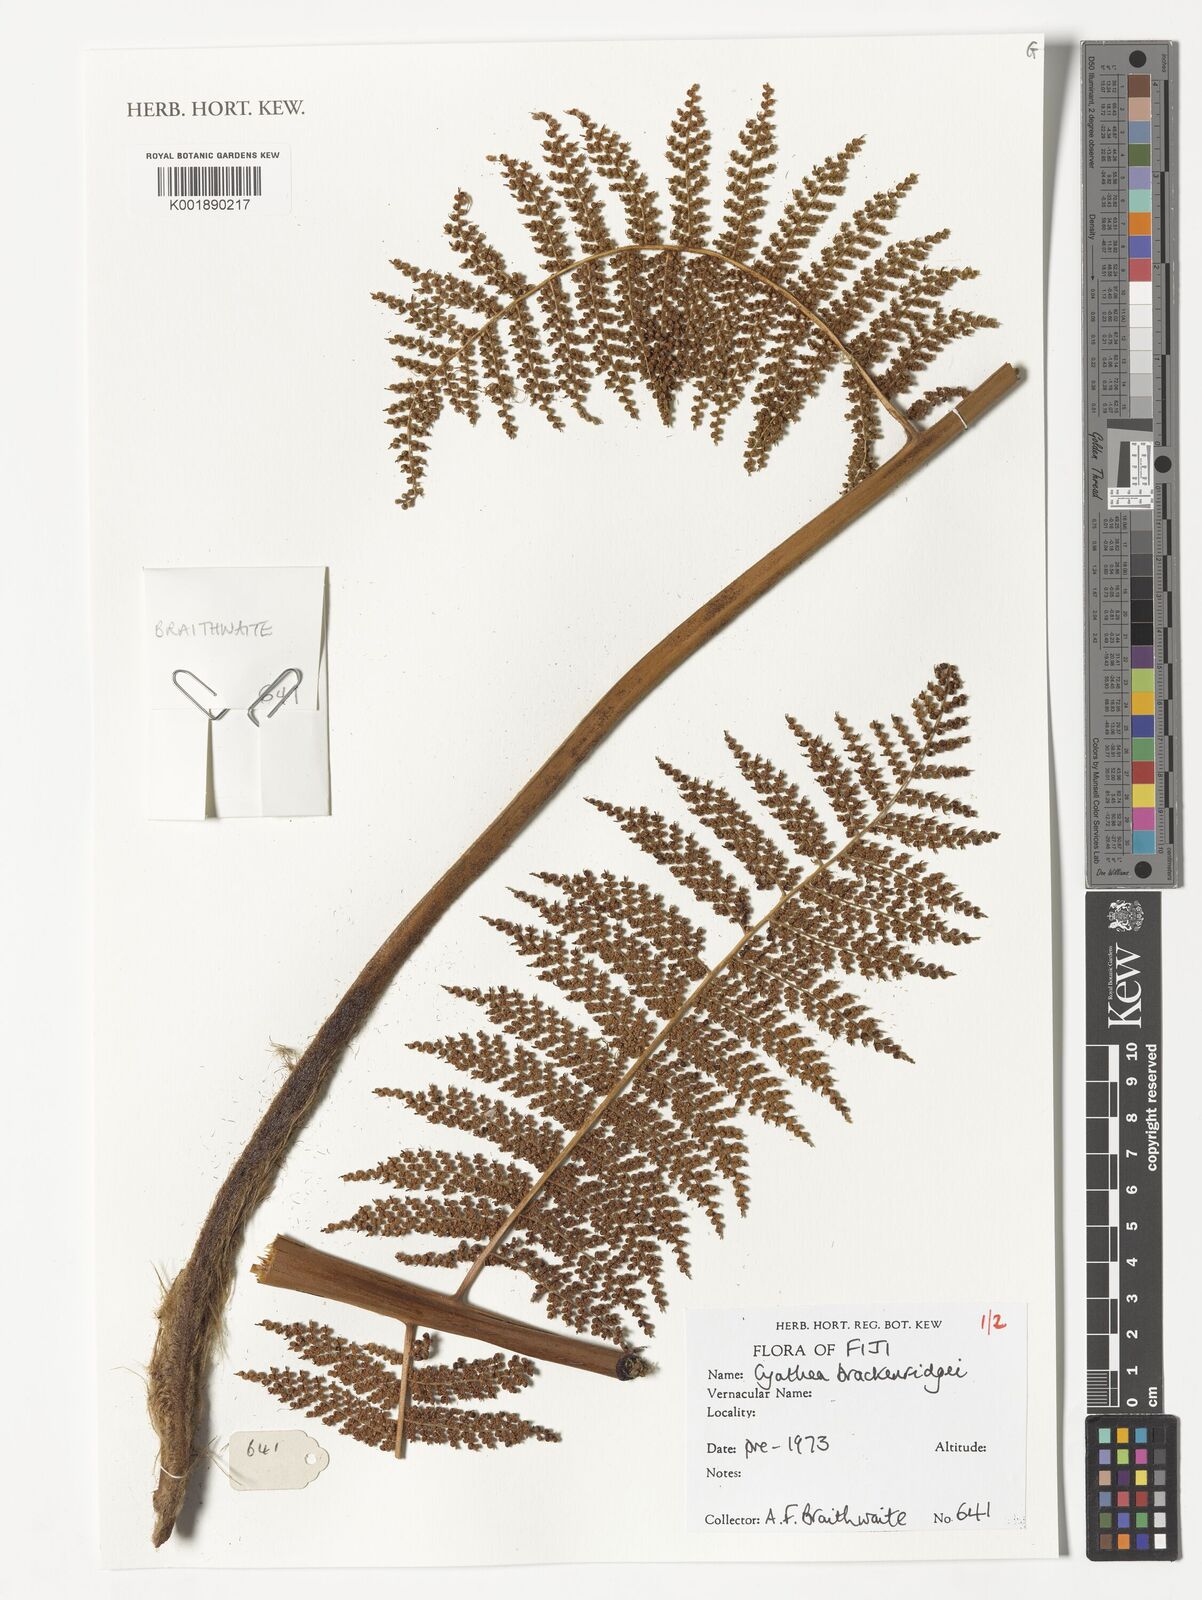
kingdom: Plantae
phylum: Tracheophyta
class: Polypodiopsida
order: Cyatheales
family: Cyatheaceae
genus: Sphaeropteris
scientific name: Sphaeropteris brackenridgei
